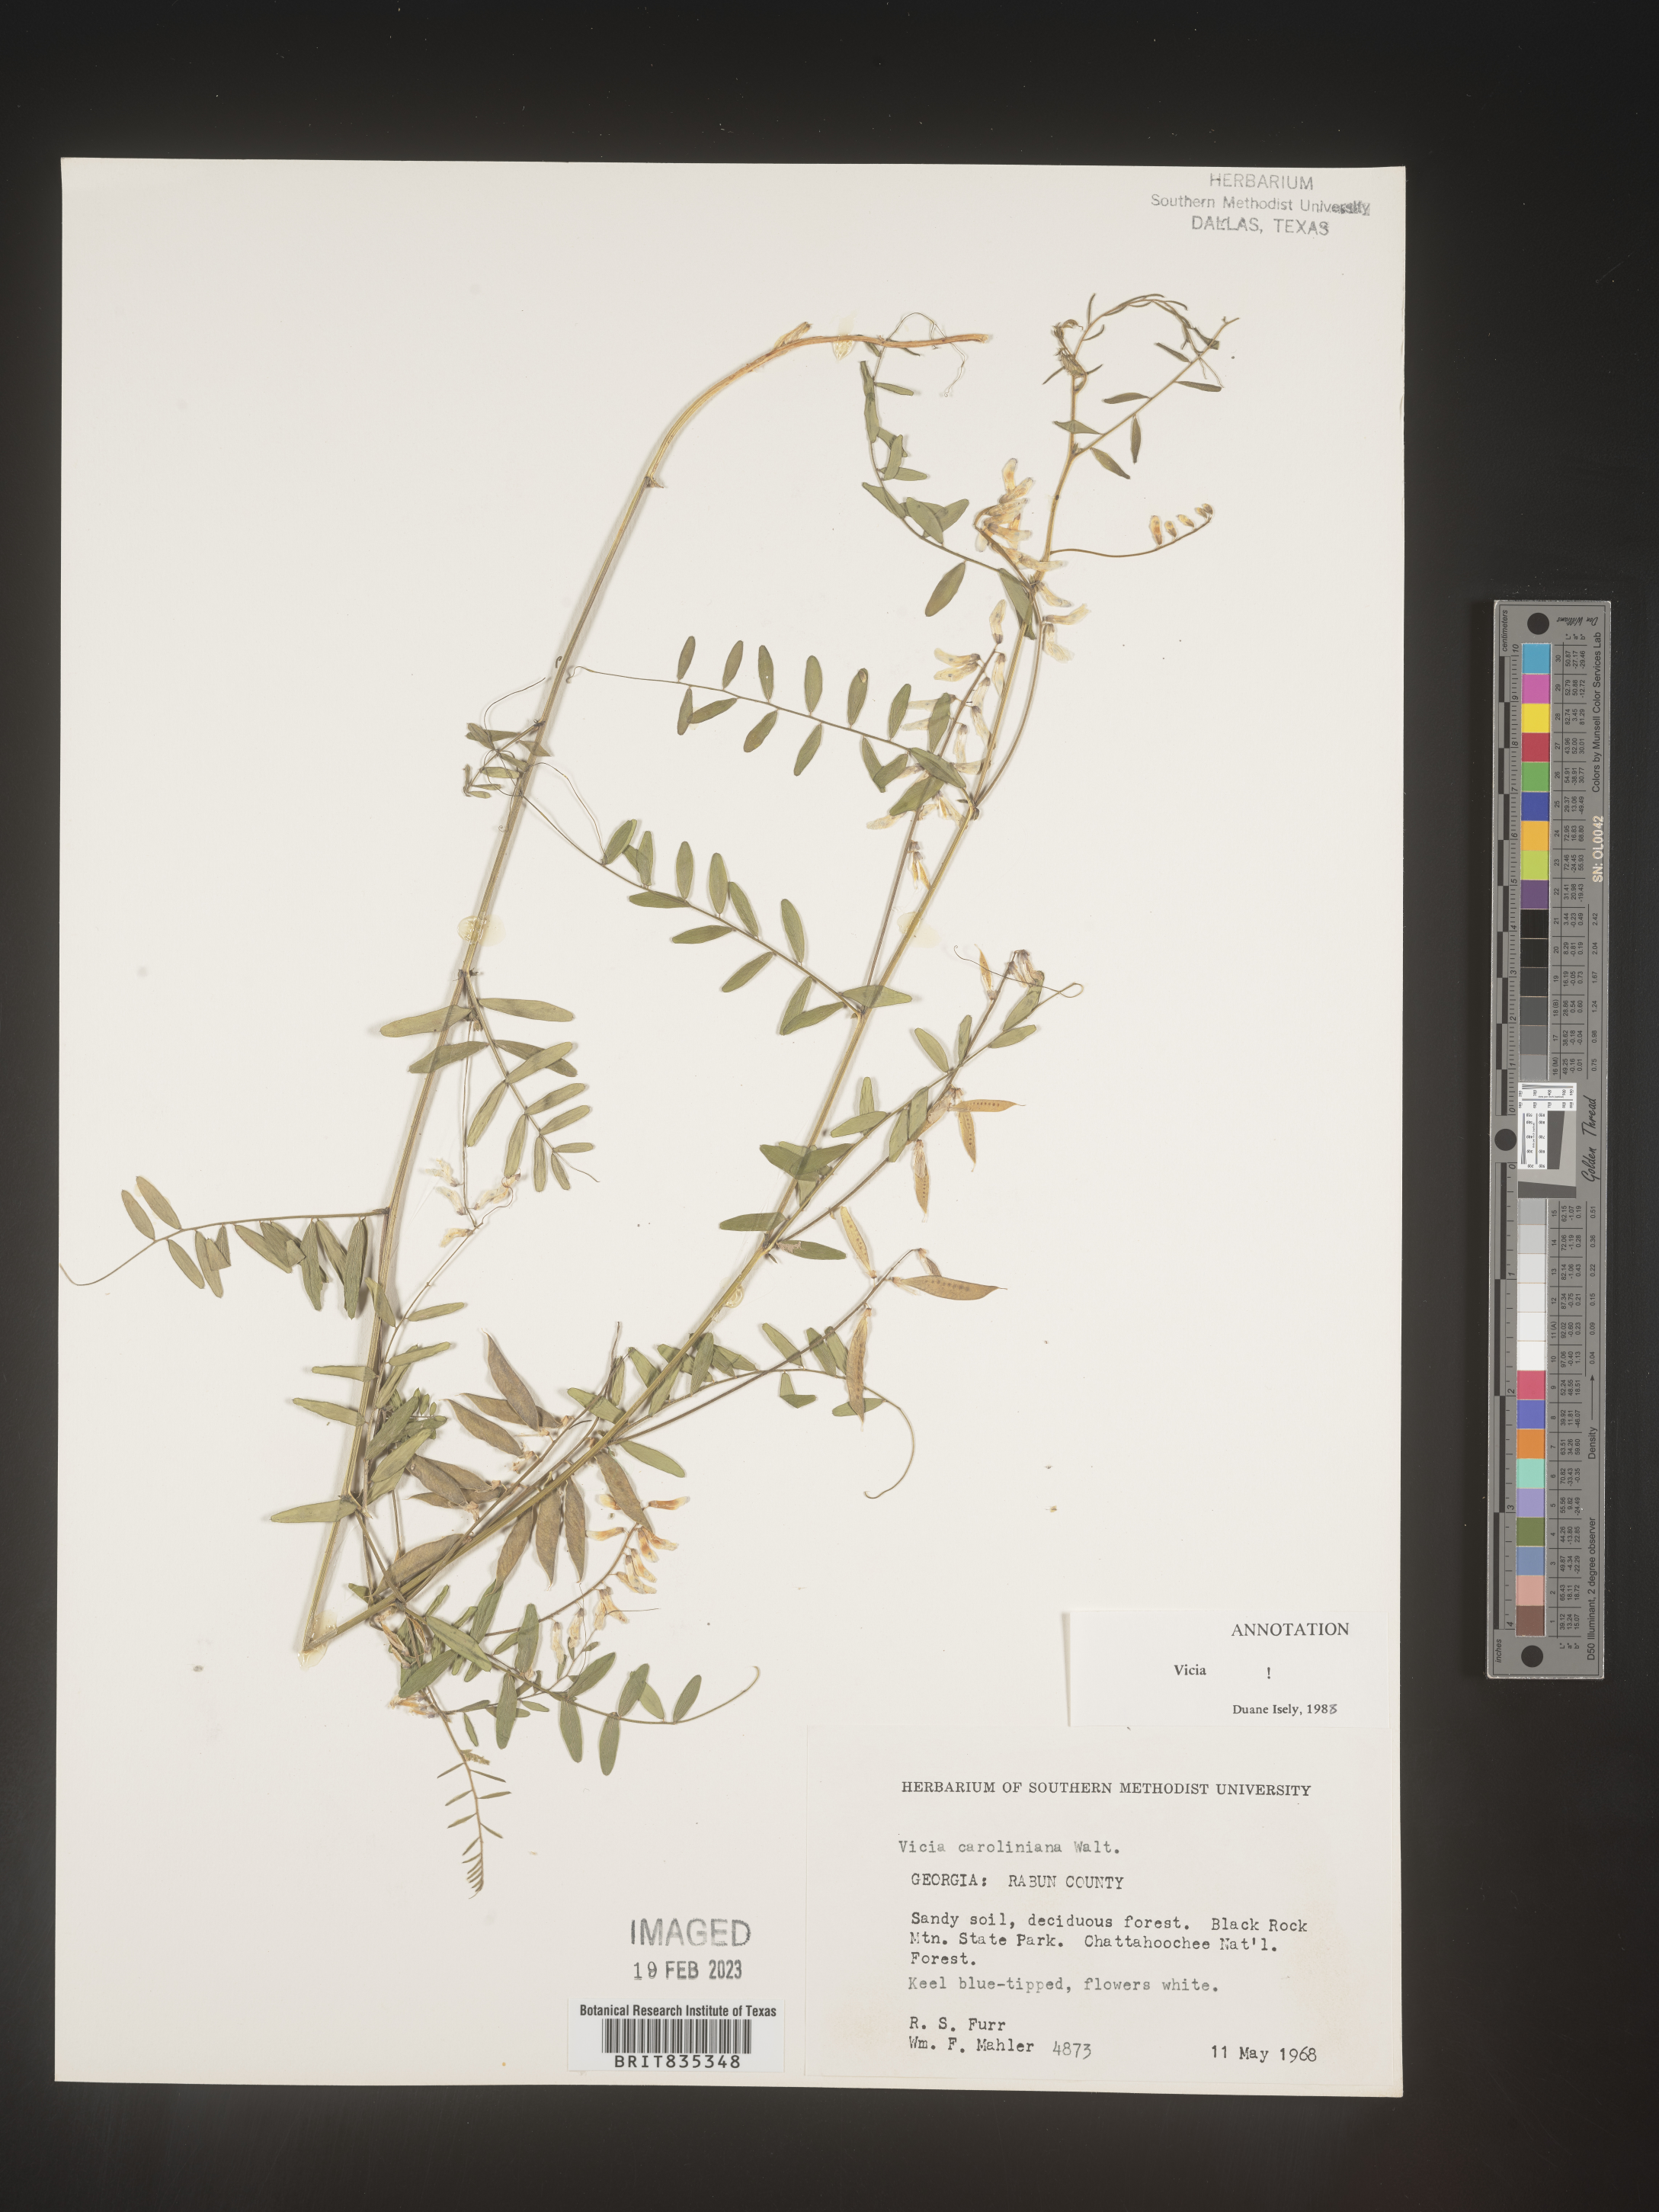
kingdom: Plantae
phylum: Tracheophyta
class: Magnoliopsida
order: Fabales
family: Fabaceae
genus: Vicia
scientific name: Vicia caroliniana
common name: Carolina vetch
